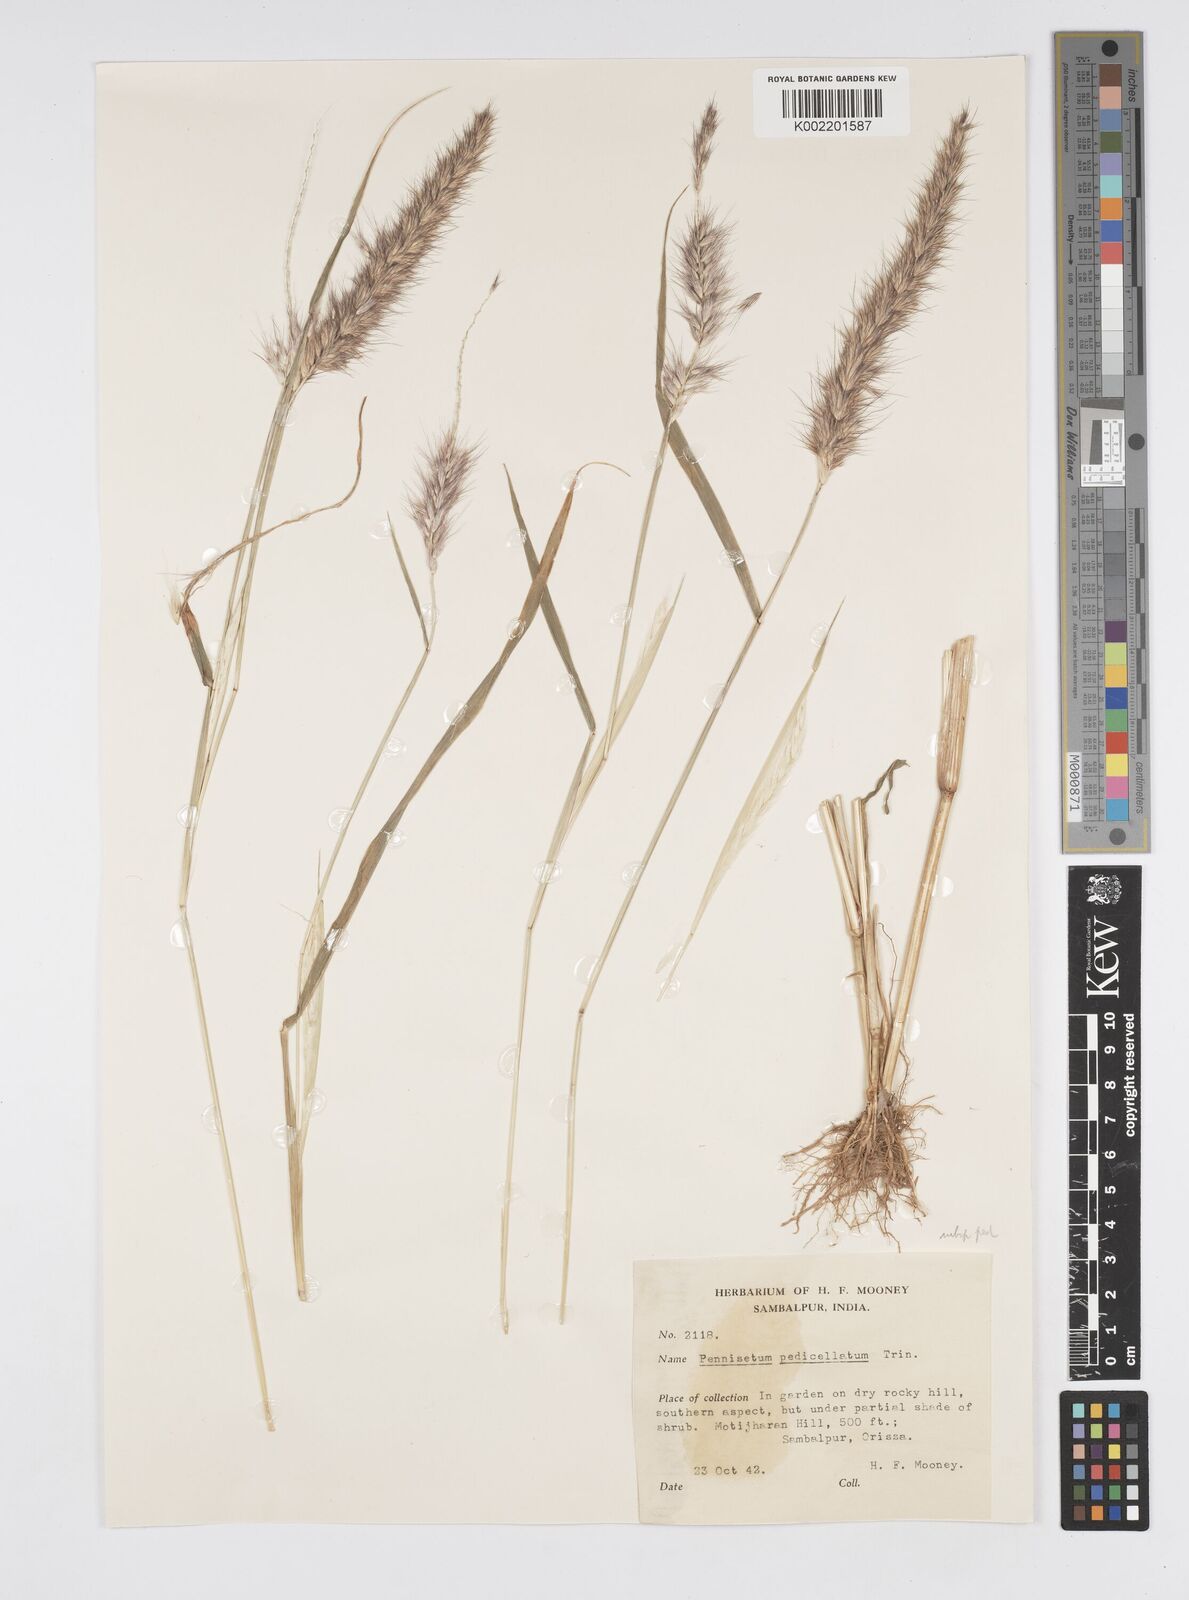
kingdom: Plantae
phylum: Tracheophyta
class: Liliopsida
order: Poales
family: Poaceae
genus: Cenchrus
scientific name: Cenchrus pedicellatus
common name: Hairy fountain grass
